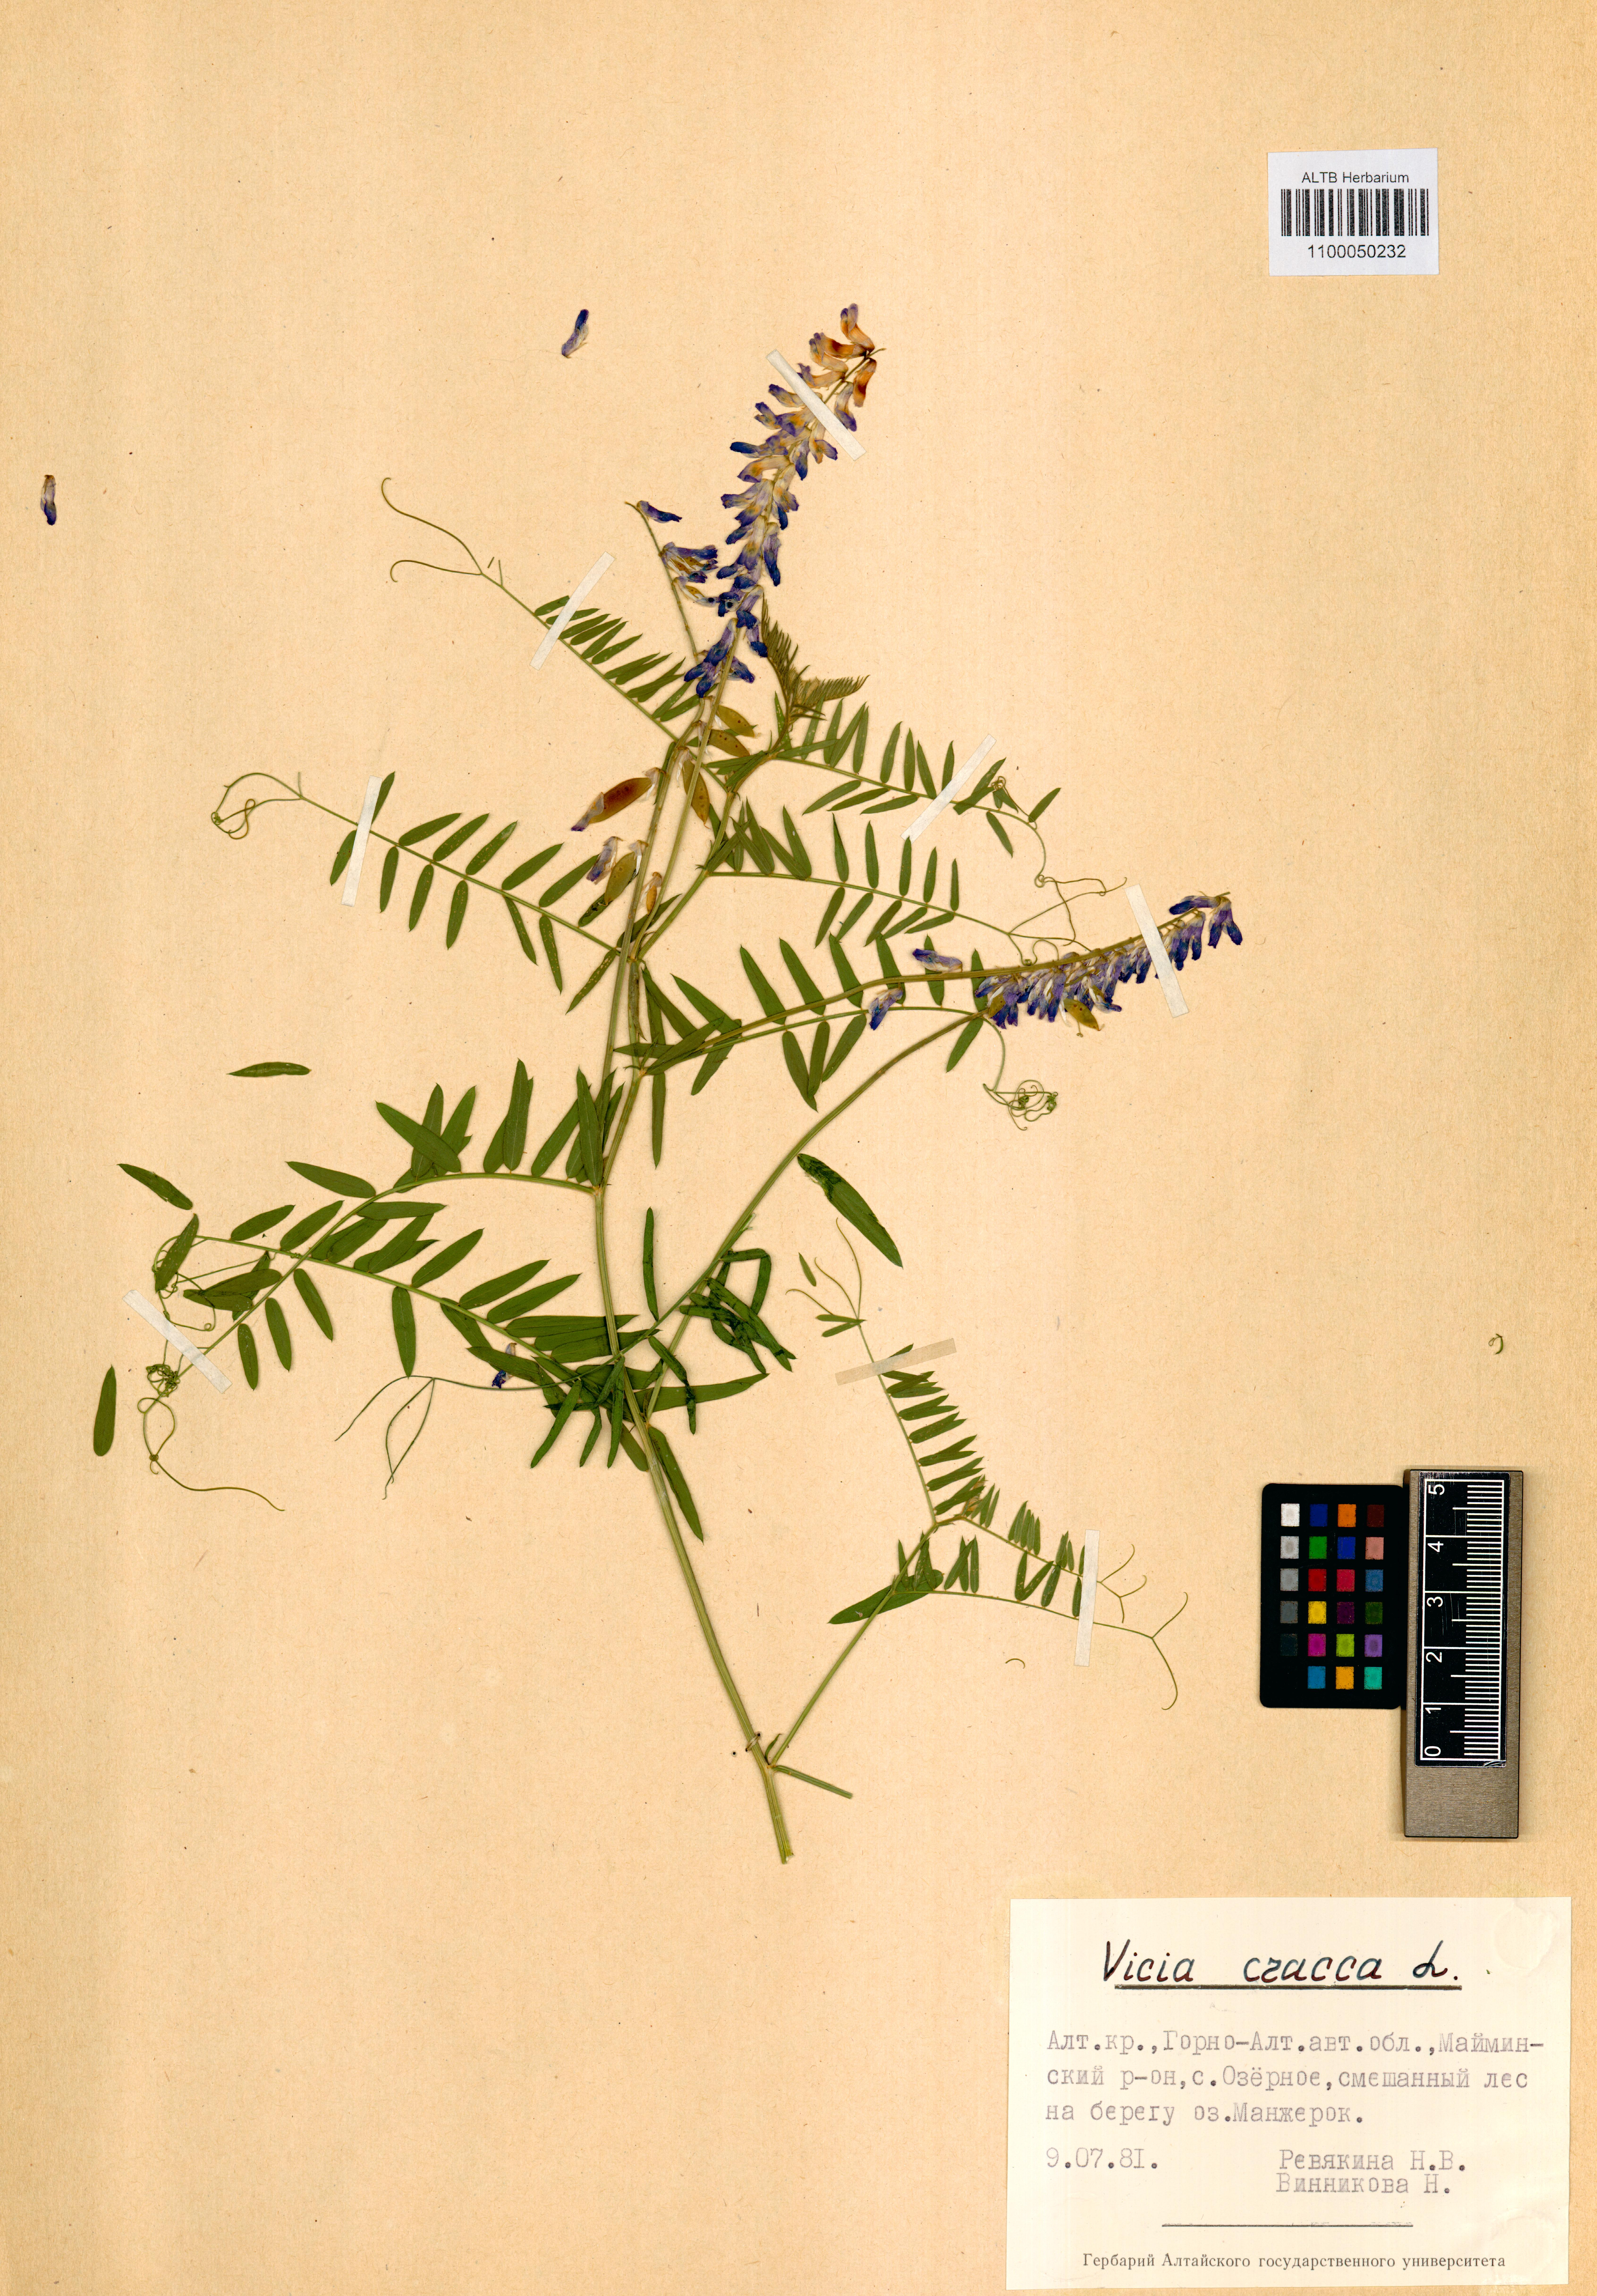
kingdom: Plantae
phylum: Tracheophyta
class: Magnoliopsida
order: Fabales
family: Fabaceae
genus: Vicia
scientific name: Vicia cracca
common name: Bird vetch
